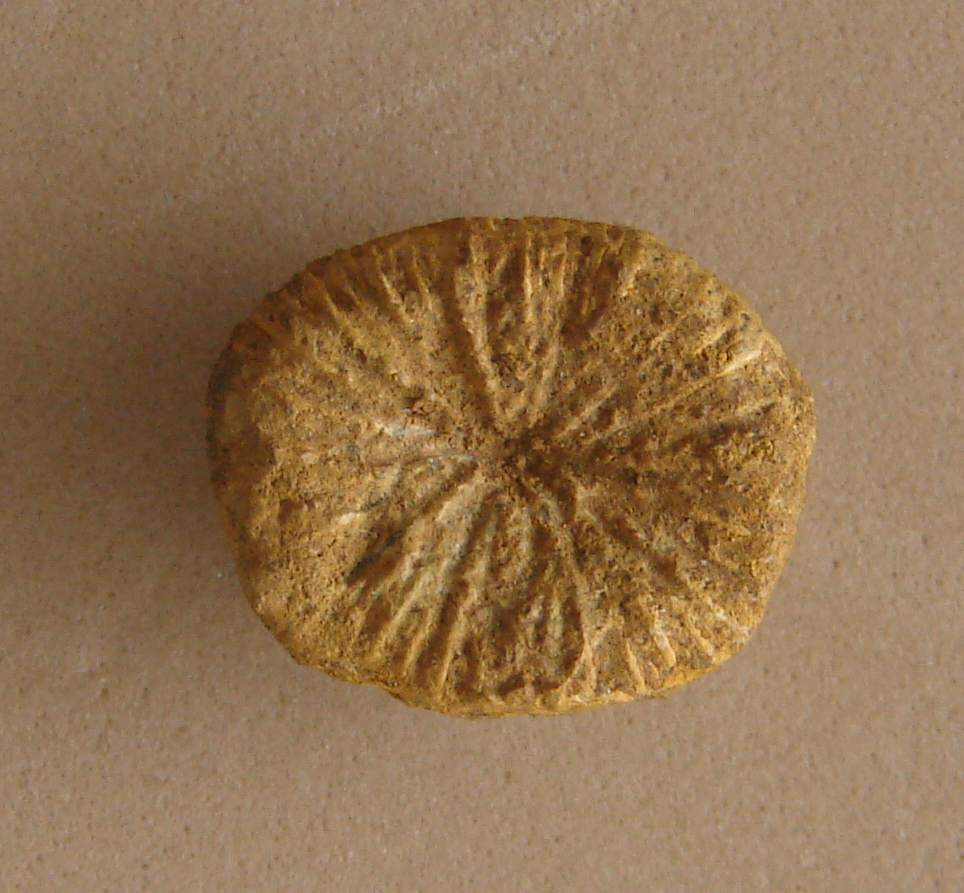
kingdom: Animalia
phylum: Cnidaria
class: Anthozoa
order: Scleractinia
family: Thecosmiliidae
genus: Montlivaltia
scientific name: Montlivaltia
